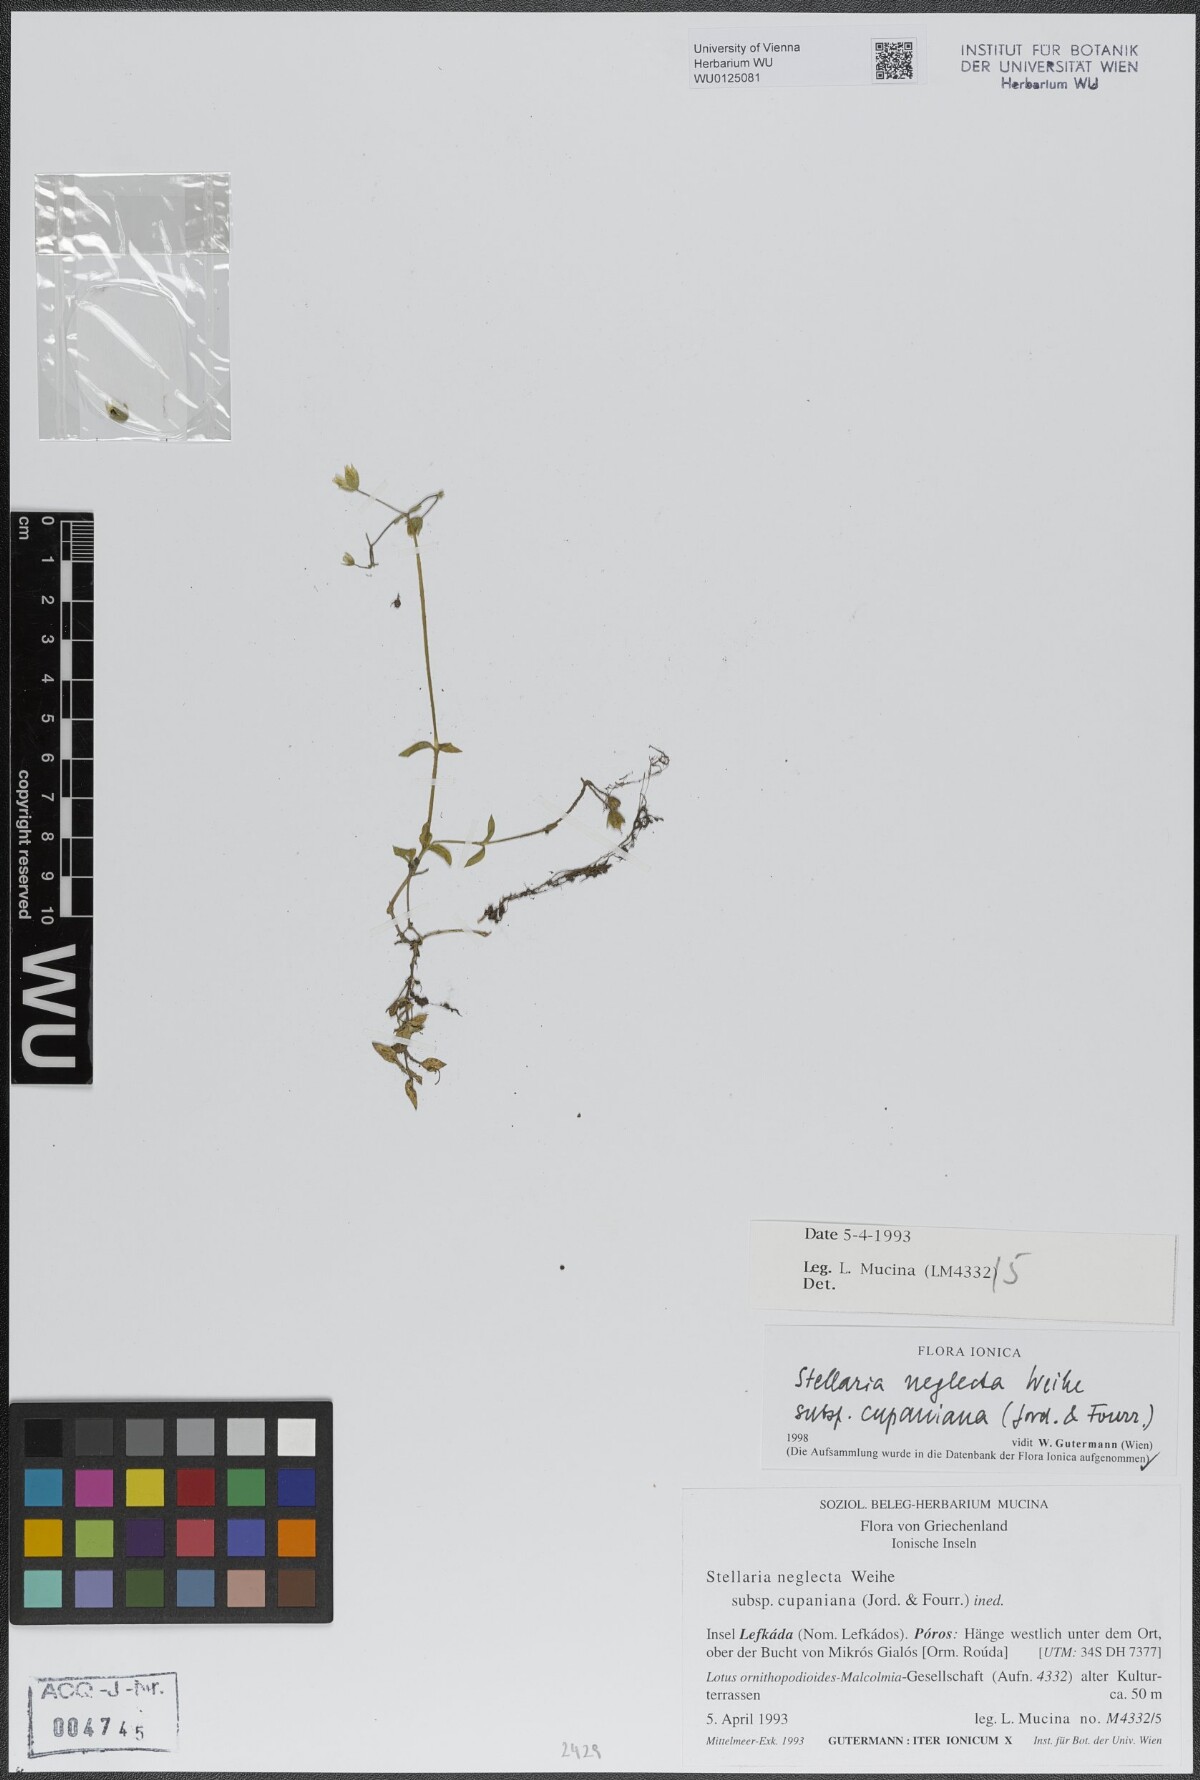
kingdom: Plantae
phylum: Tracheophyta
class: Magnoliopsida
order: Caryophyllales
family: Caryophyllaceae
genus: Stellaria
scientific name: Stellaria cupaniana
